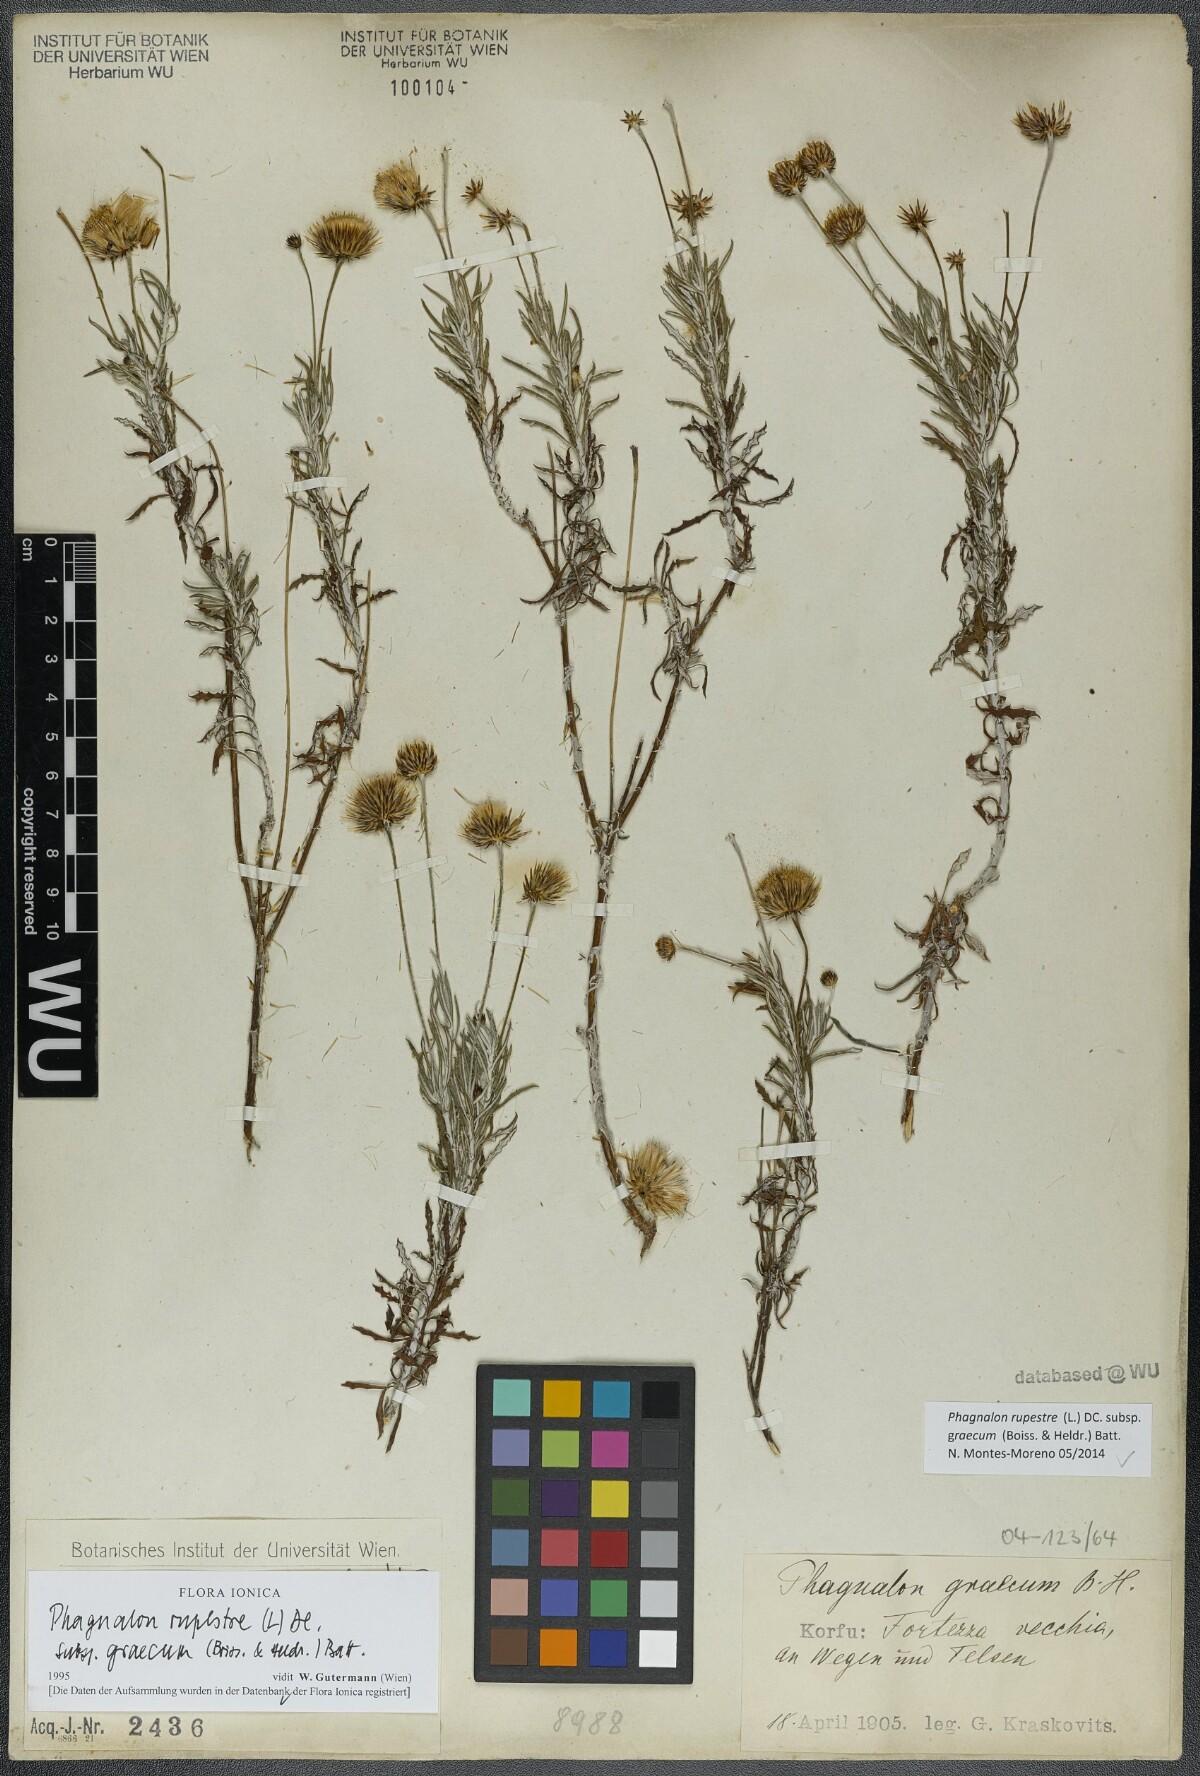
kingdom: Plantae
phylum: Tracheophyta
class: Magnoliopsida
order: Asterales
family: Asteraceae
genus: Phagnalon
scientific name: Phagnalon graecum
